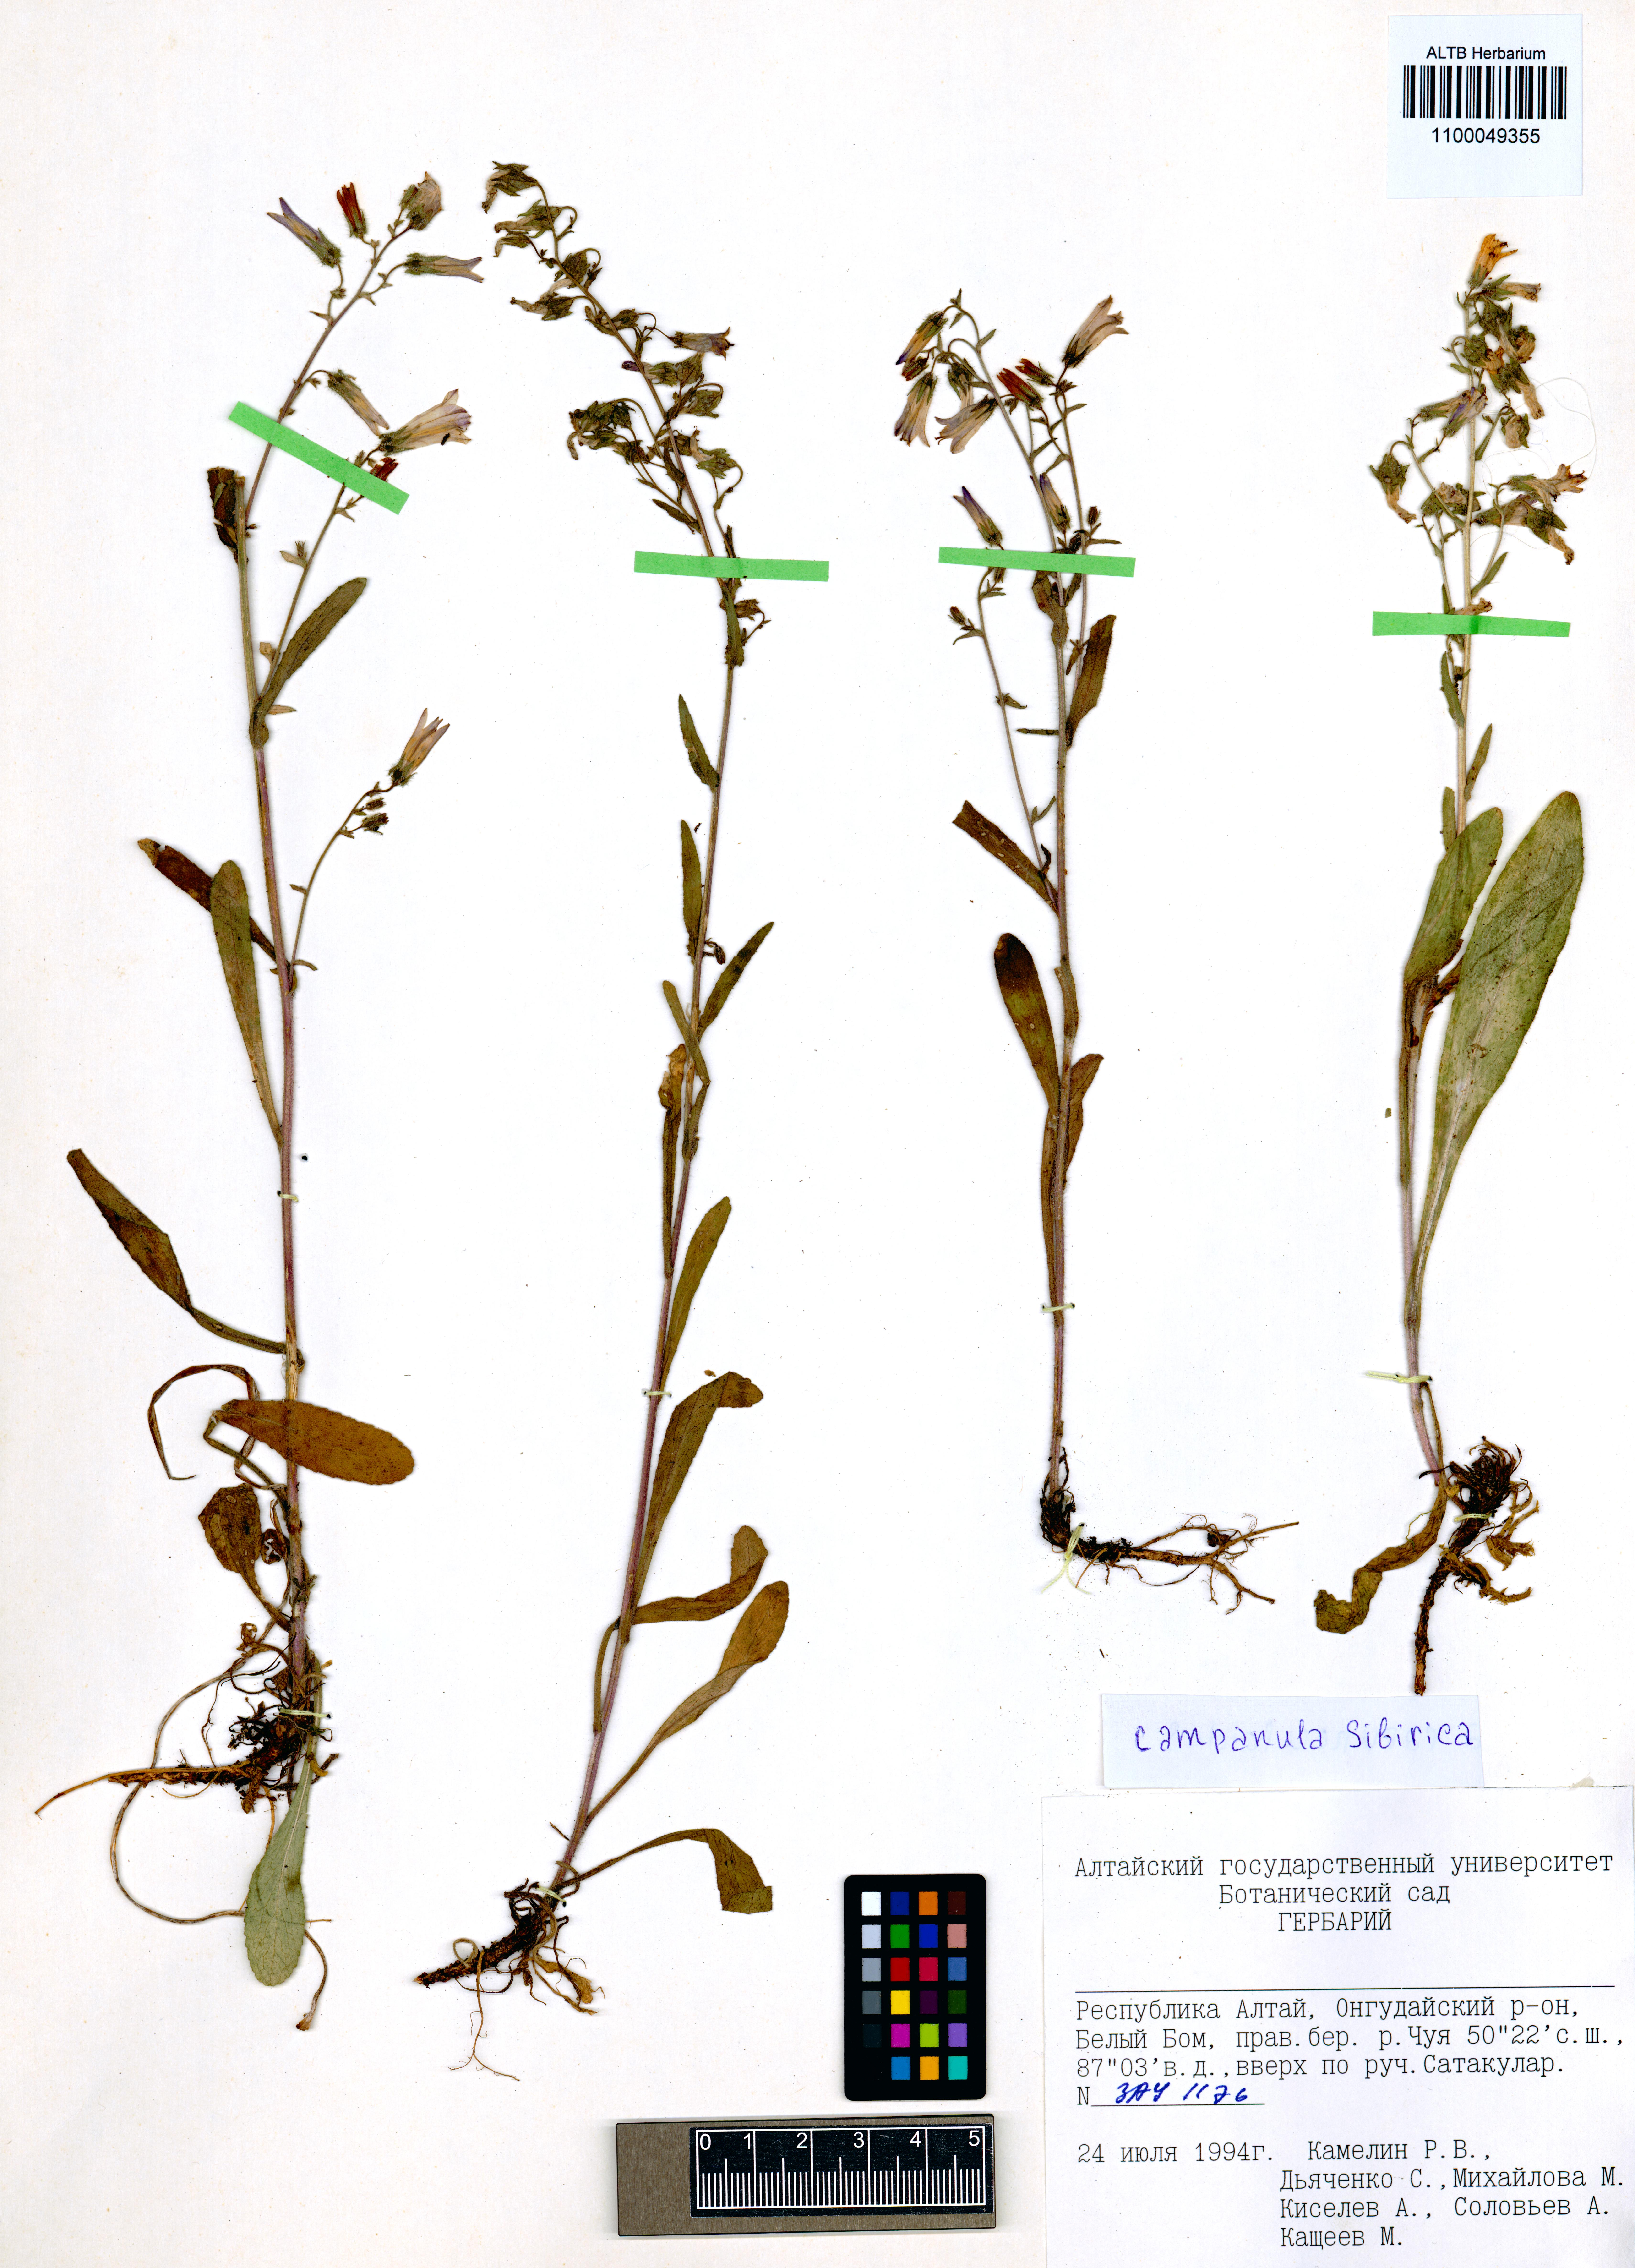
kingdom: Plantae
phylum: Tracheophyta
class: Magnoliopsida
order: Asterales
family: Campanulaceae
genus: Campanula
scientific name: Campanula sibirica
